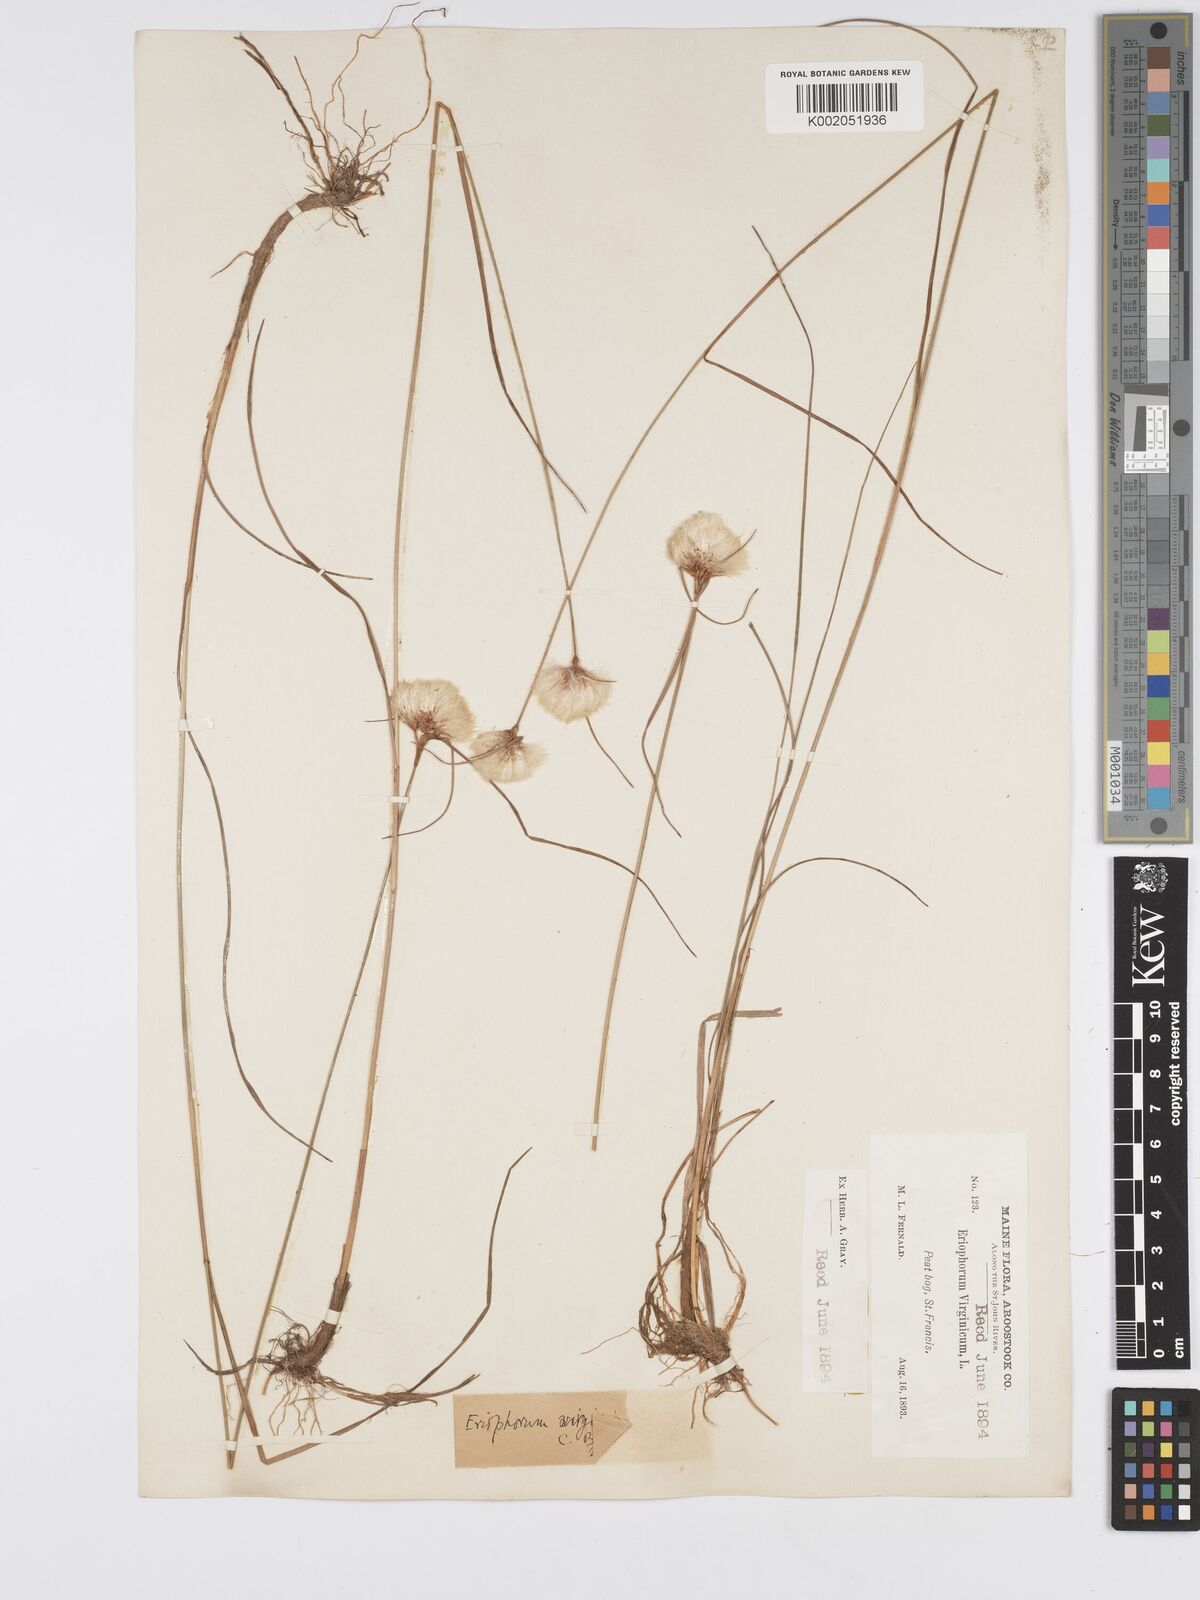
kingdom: Plantae
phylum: Tracheophyta
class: Liliopsida
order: Poales
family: Cyperaceae
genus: Eriophorum
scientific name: Eriophorum virginicum
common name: Tawny cottongrass
